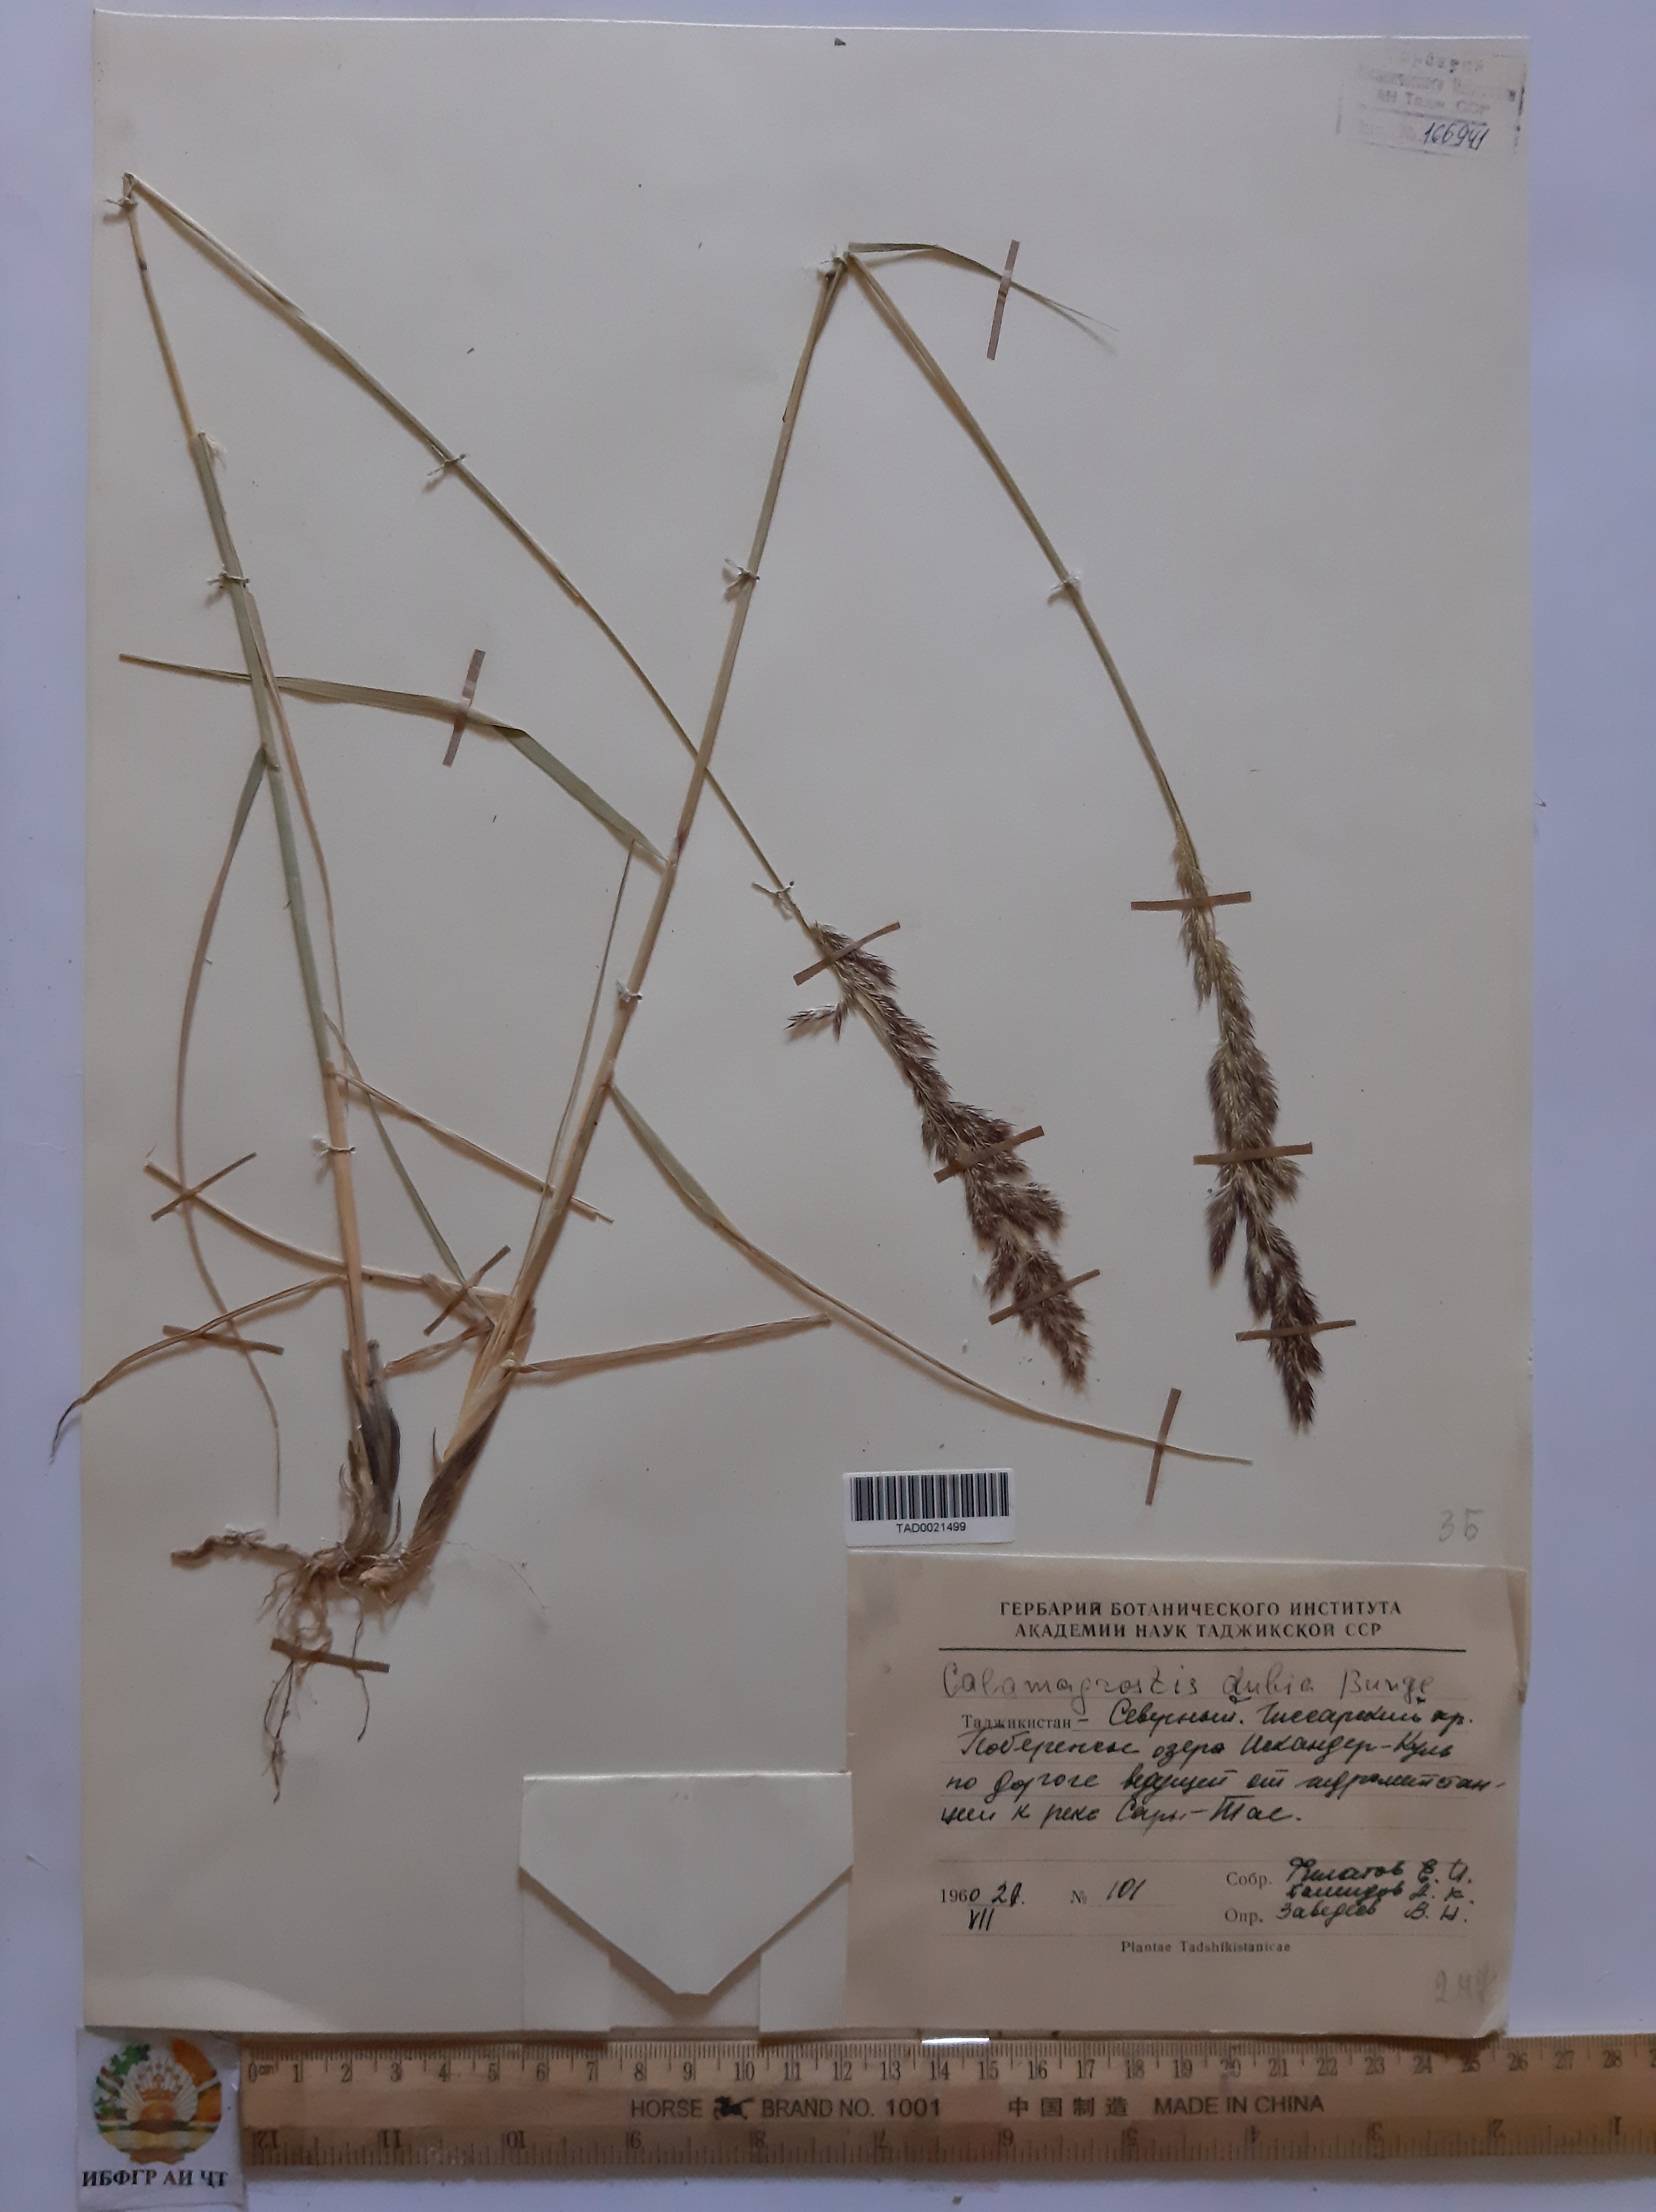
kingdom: Plantae
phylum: Tracheophyta
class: Liliopsida
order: Poales
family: Poaceae
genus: Calamagrostis
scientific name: Calamagrostis pseudophragmites
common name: Coastal small-reed
